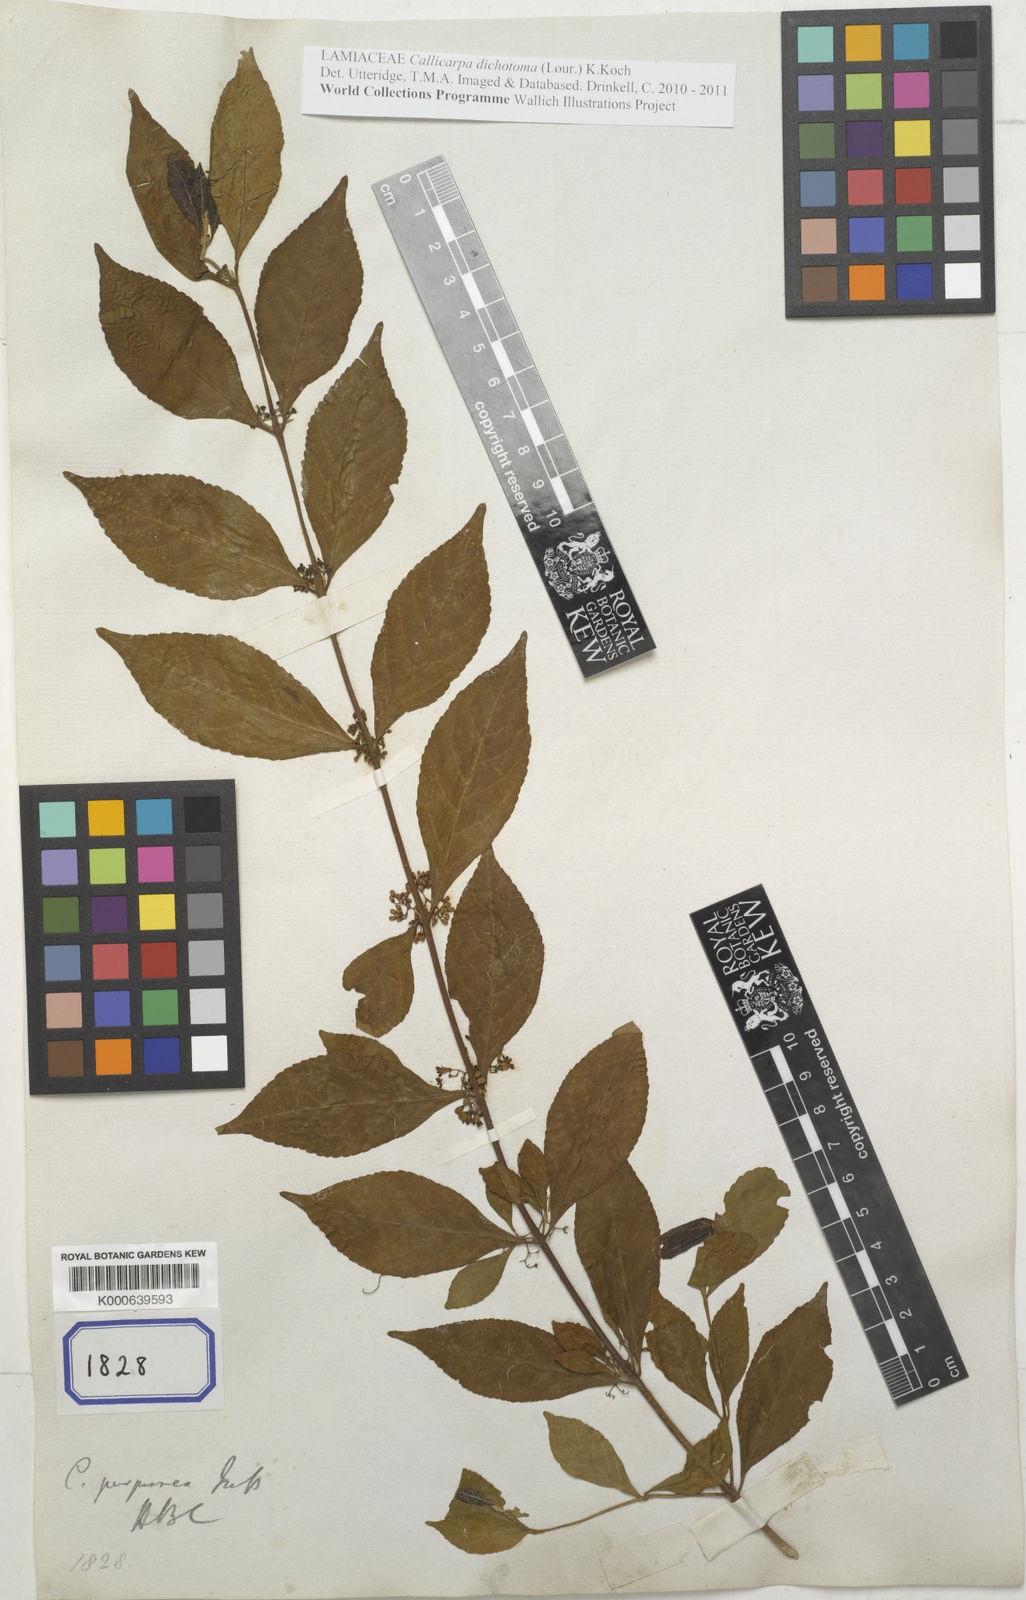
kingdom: Plantae
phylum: Tracheophyta
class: Magnoliopsida
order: Lamiales
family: Lamiaceae
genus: Callicarpa
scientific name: Callicarpa dichotoma
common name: Purple beauty-berry
